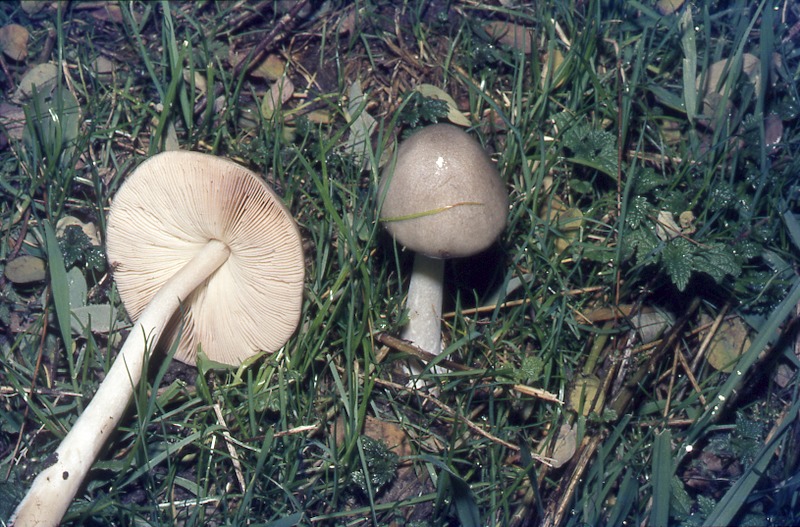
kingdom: Fungi
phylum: Basidiomycota
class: Agaricomycetes
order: Agaricales
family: Pluteaceae
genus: Volvopluteus
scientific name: Volvopluteus gloiocephalus
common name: Stubble rosegill
